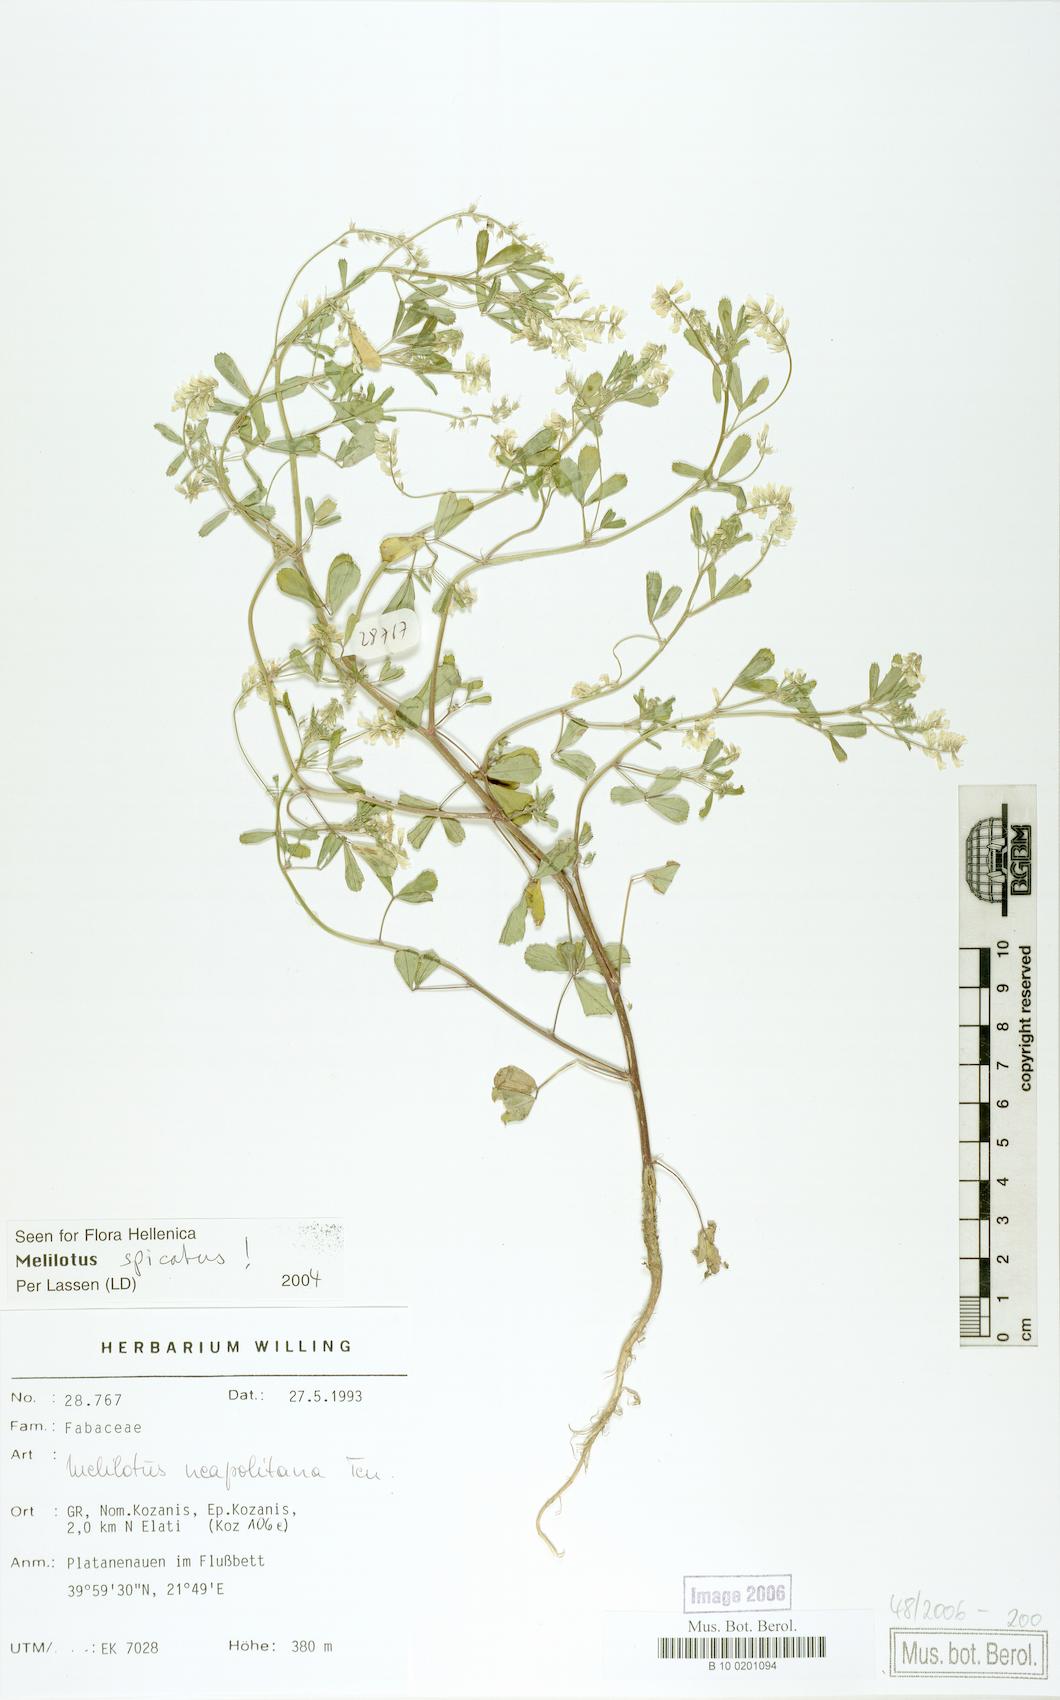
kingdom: Plantae
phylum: Tracheophyta
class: Magnoliopsida
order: Fabales
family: Fabaceae
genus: Melilotus
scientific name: Melilotus neapolitanus
